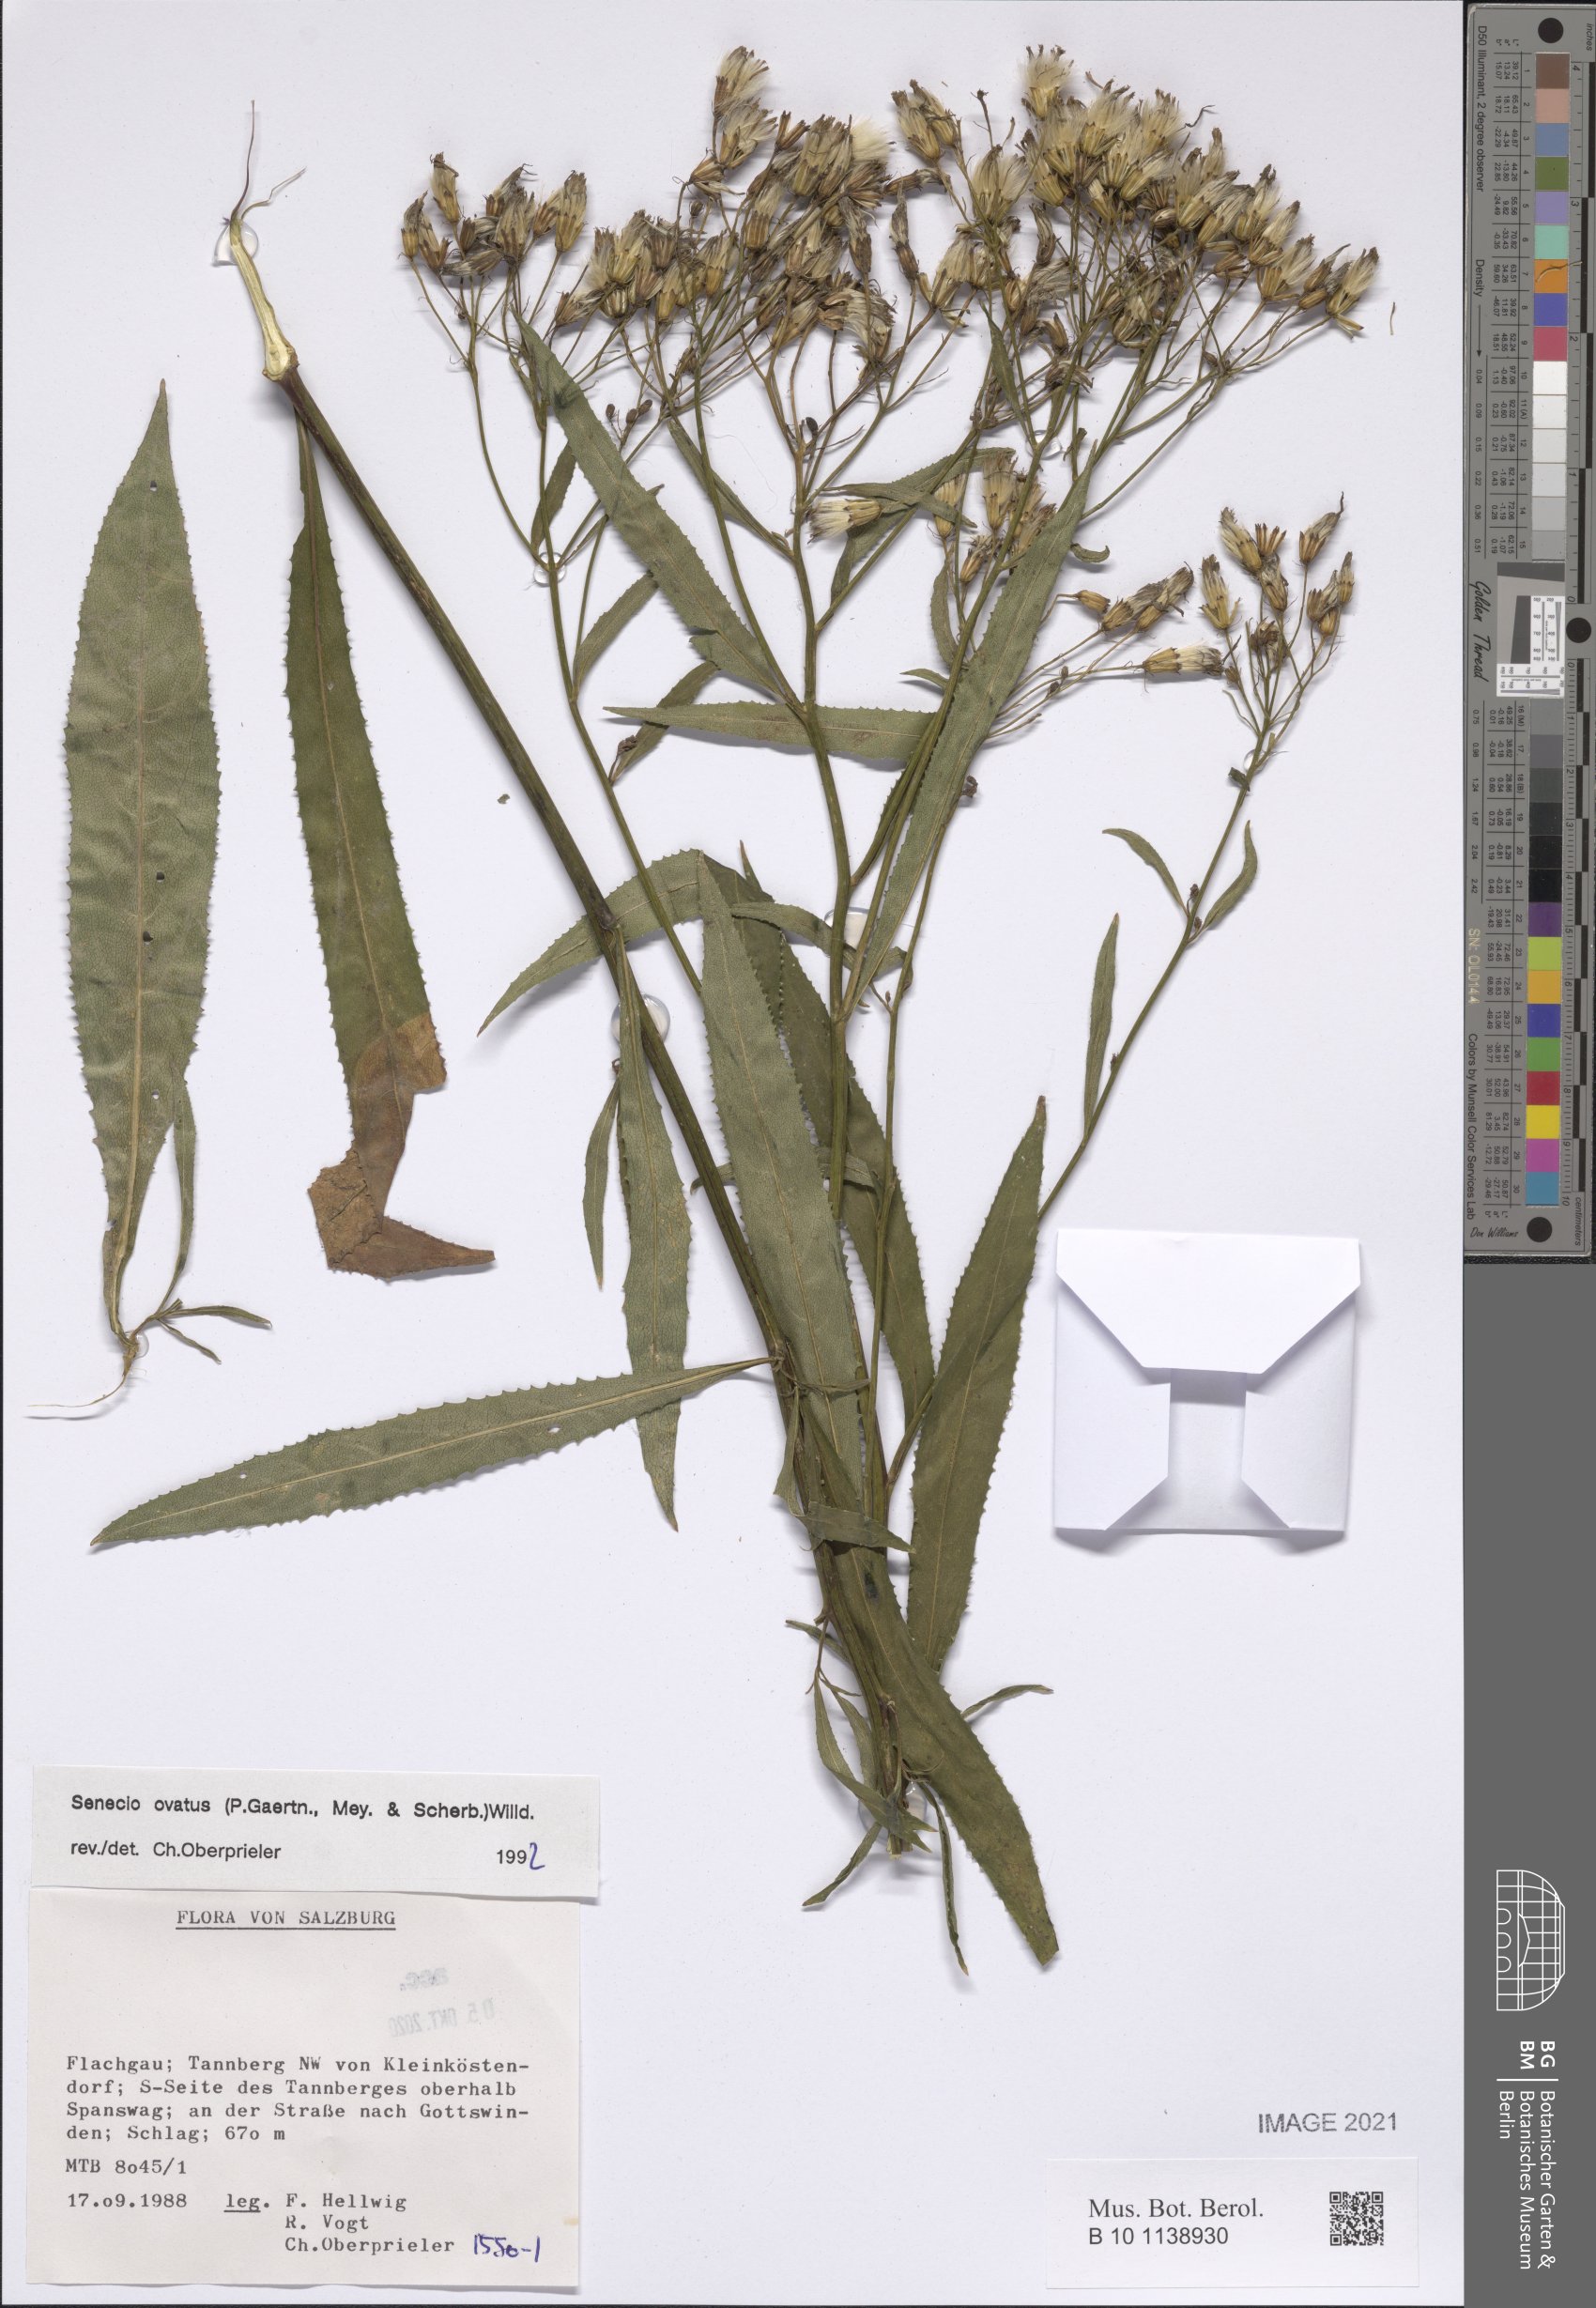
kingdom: Plantae
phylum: Tracheophyta
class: Magnoliopsida
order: Asterales
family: Asteraceae
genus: Senecio
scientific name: Senecio ovatus
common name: Wood ragwort
